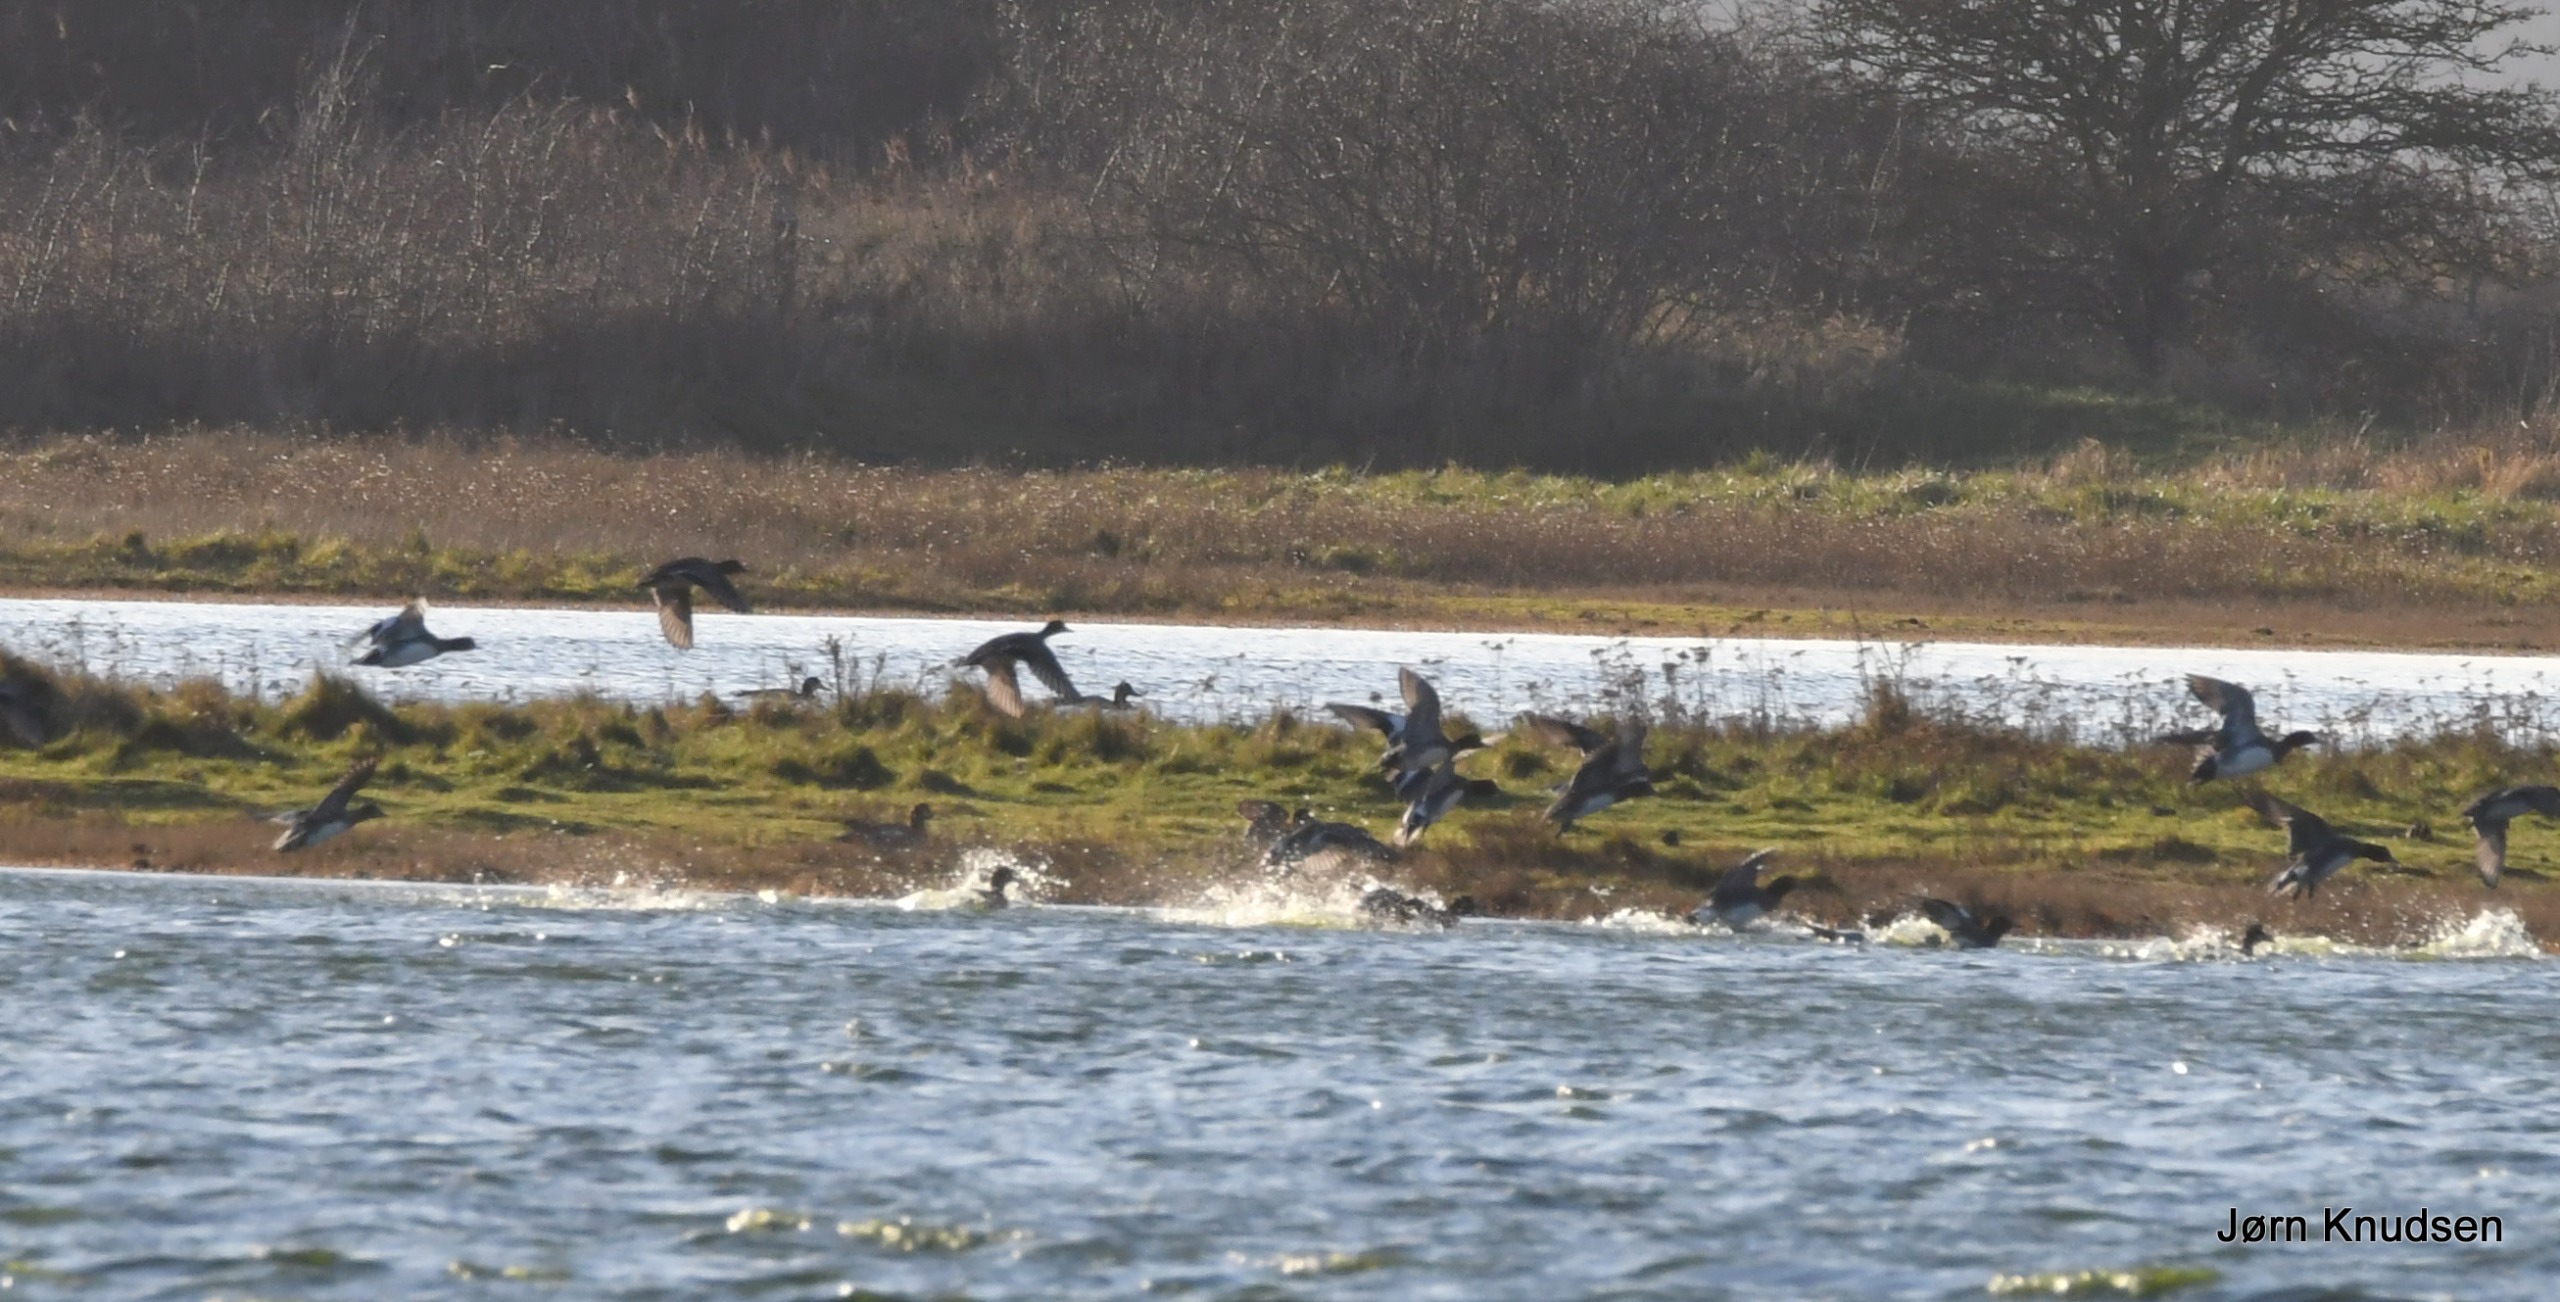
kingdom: Animalia
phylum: Chordata
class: Aves
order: Anseriformes
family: Anatidae
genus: Mareca
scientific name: Mareca penelope
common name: Pibeand
